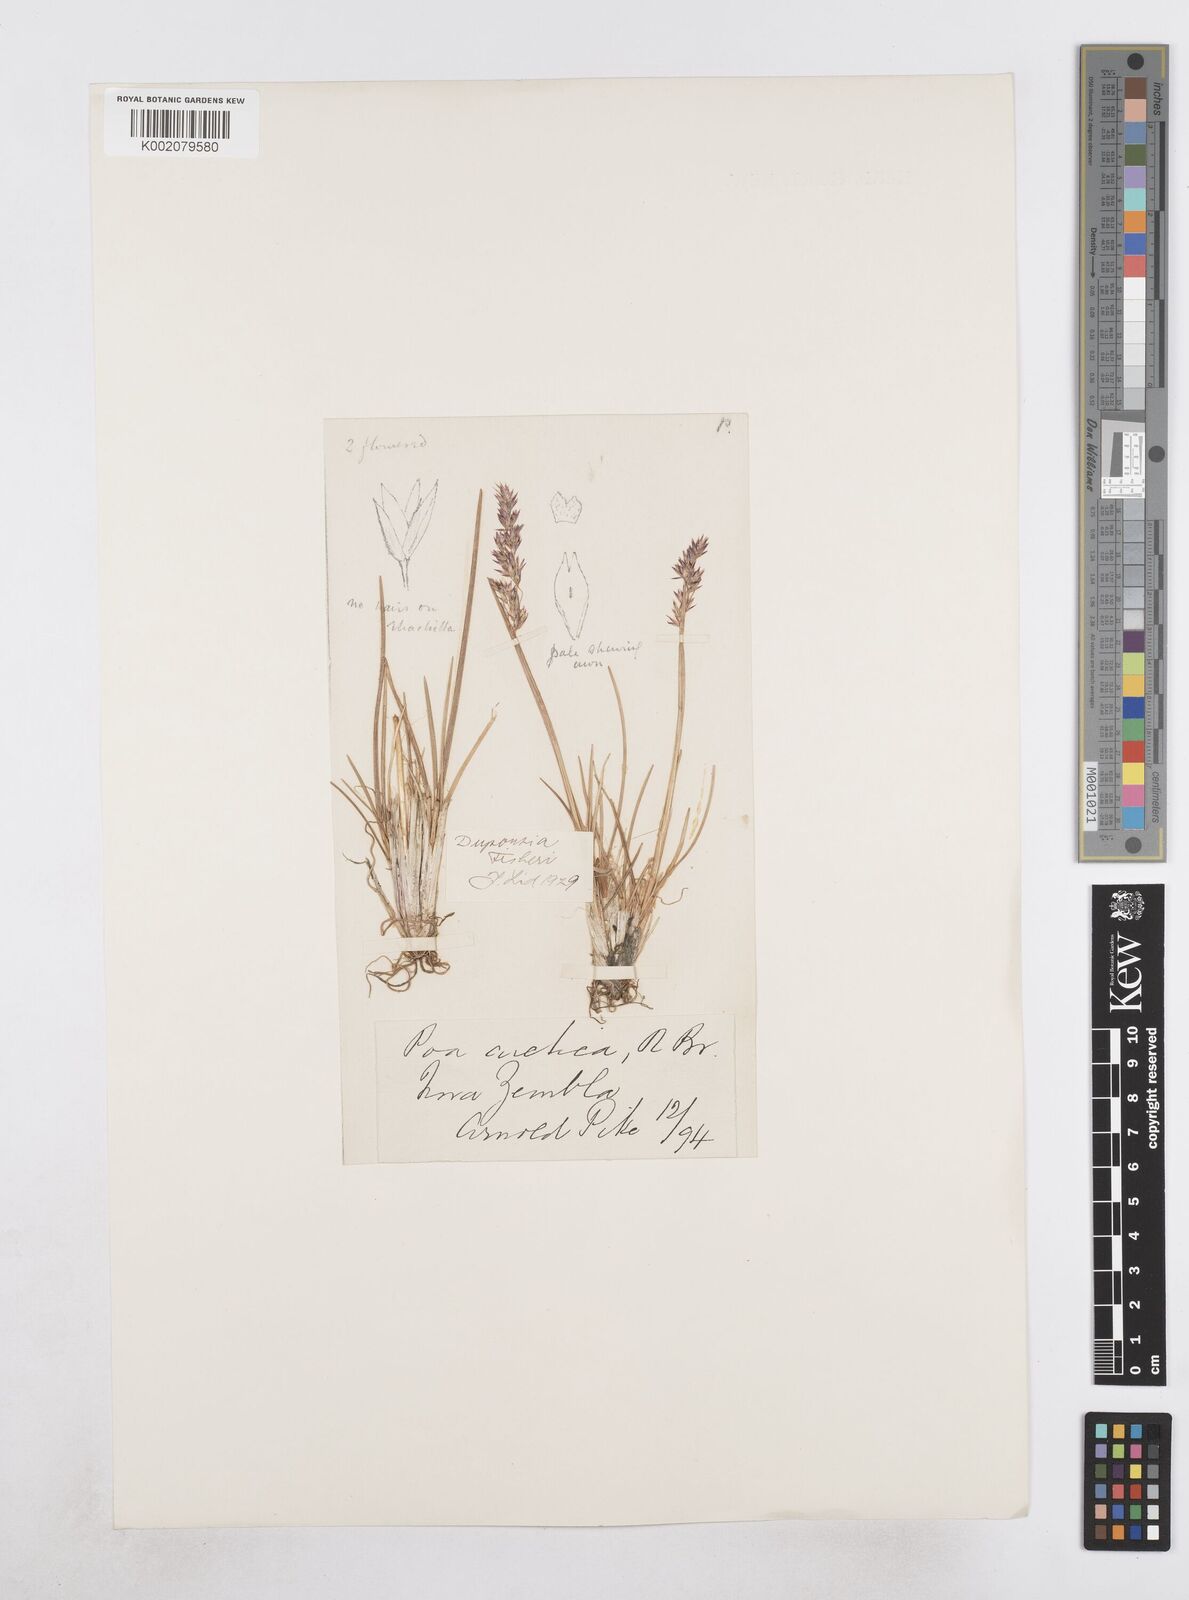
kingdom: Plantae
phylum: Tracheophyta
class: Liliopsida
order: Poales
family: Poaceae
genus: Dupontia
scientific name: Dupontia fisheri
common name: Tundra grass
